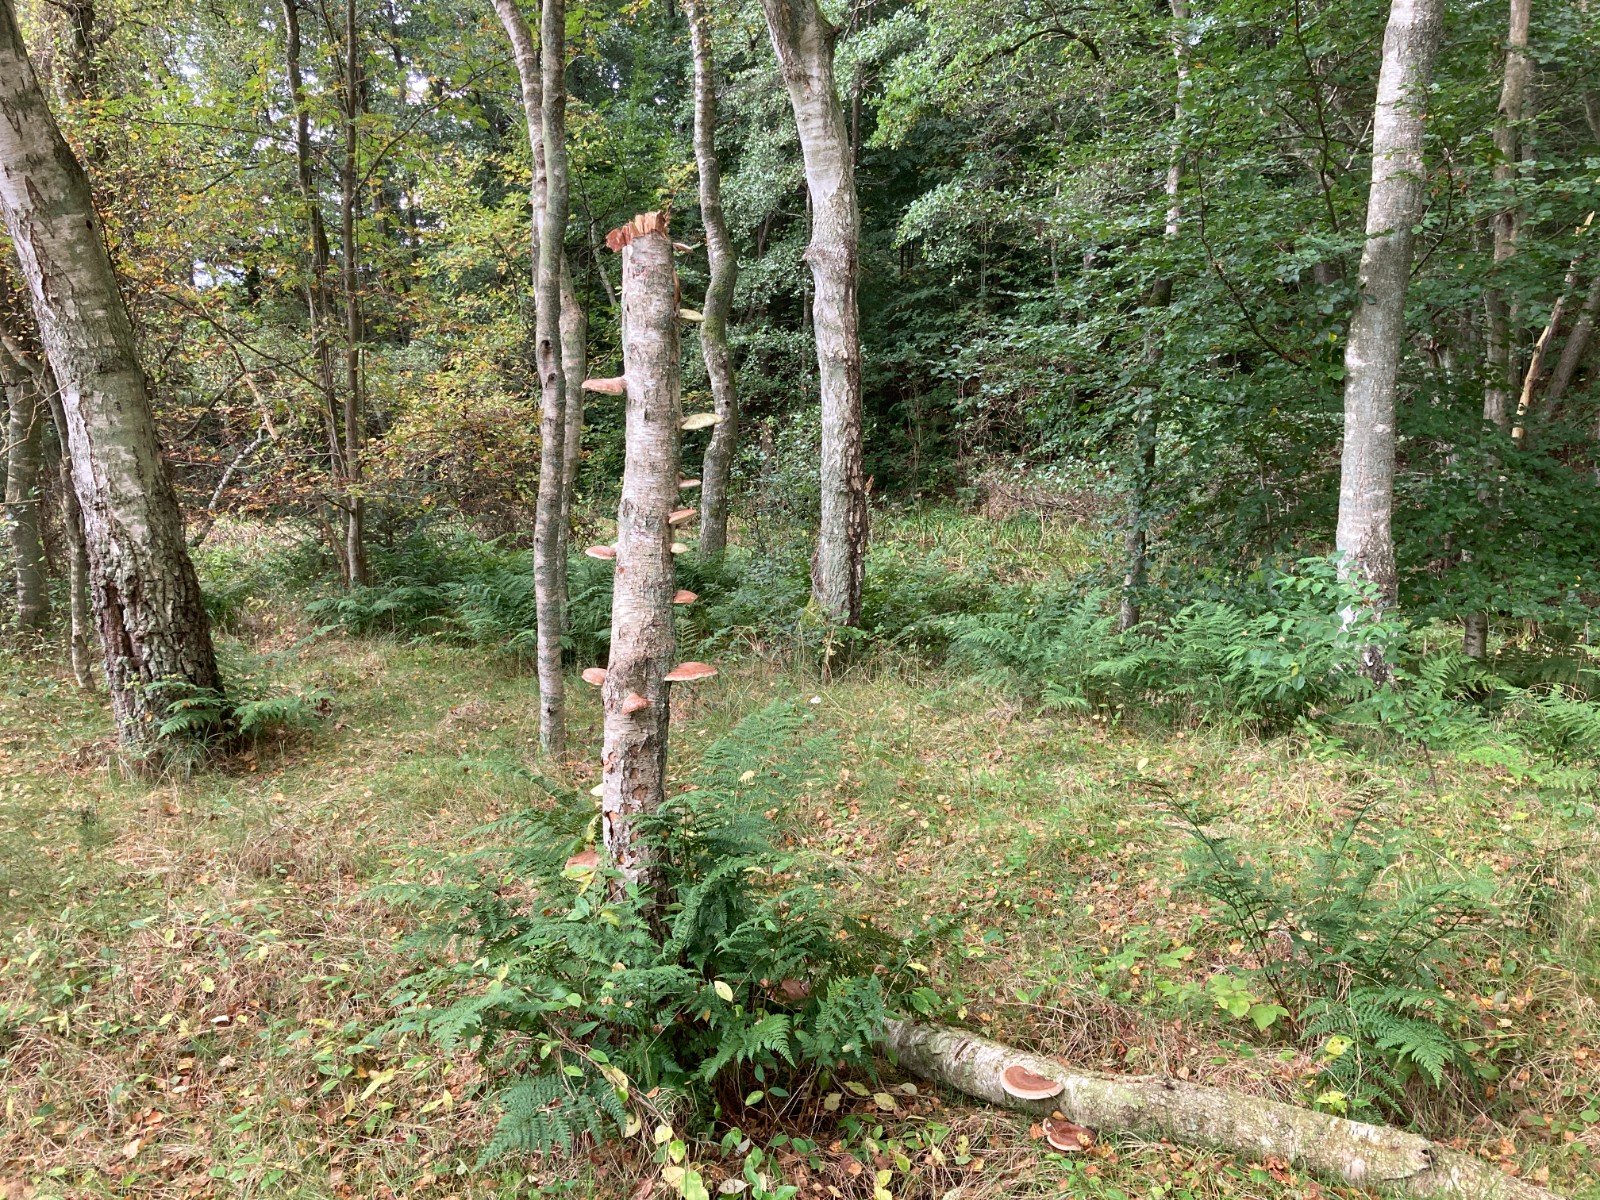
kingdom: Fungi
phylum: Basidiomycota
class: Agaricomycetes
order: Polyporales
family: Fomitopsidaceae
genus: Fomitopsis
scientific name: Fomitopsis betulina
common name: birkeporesvamp
